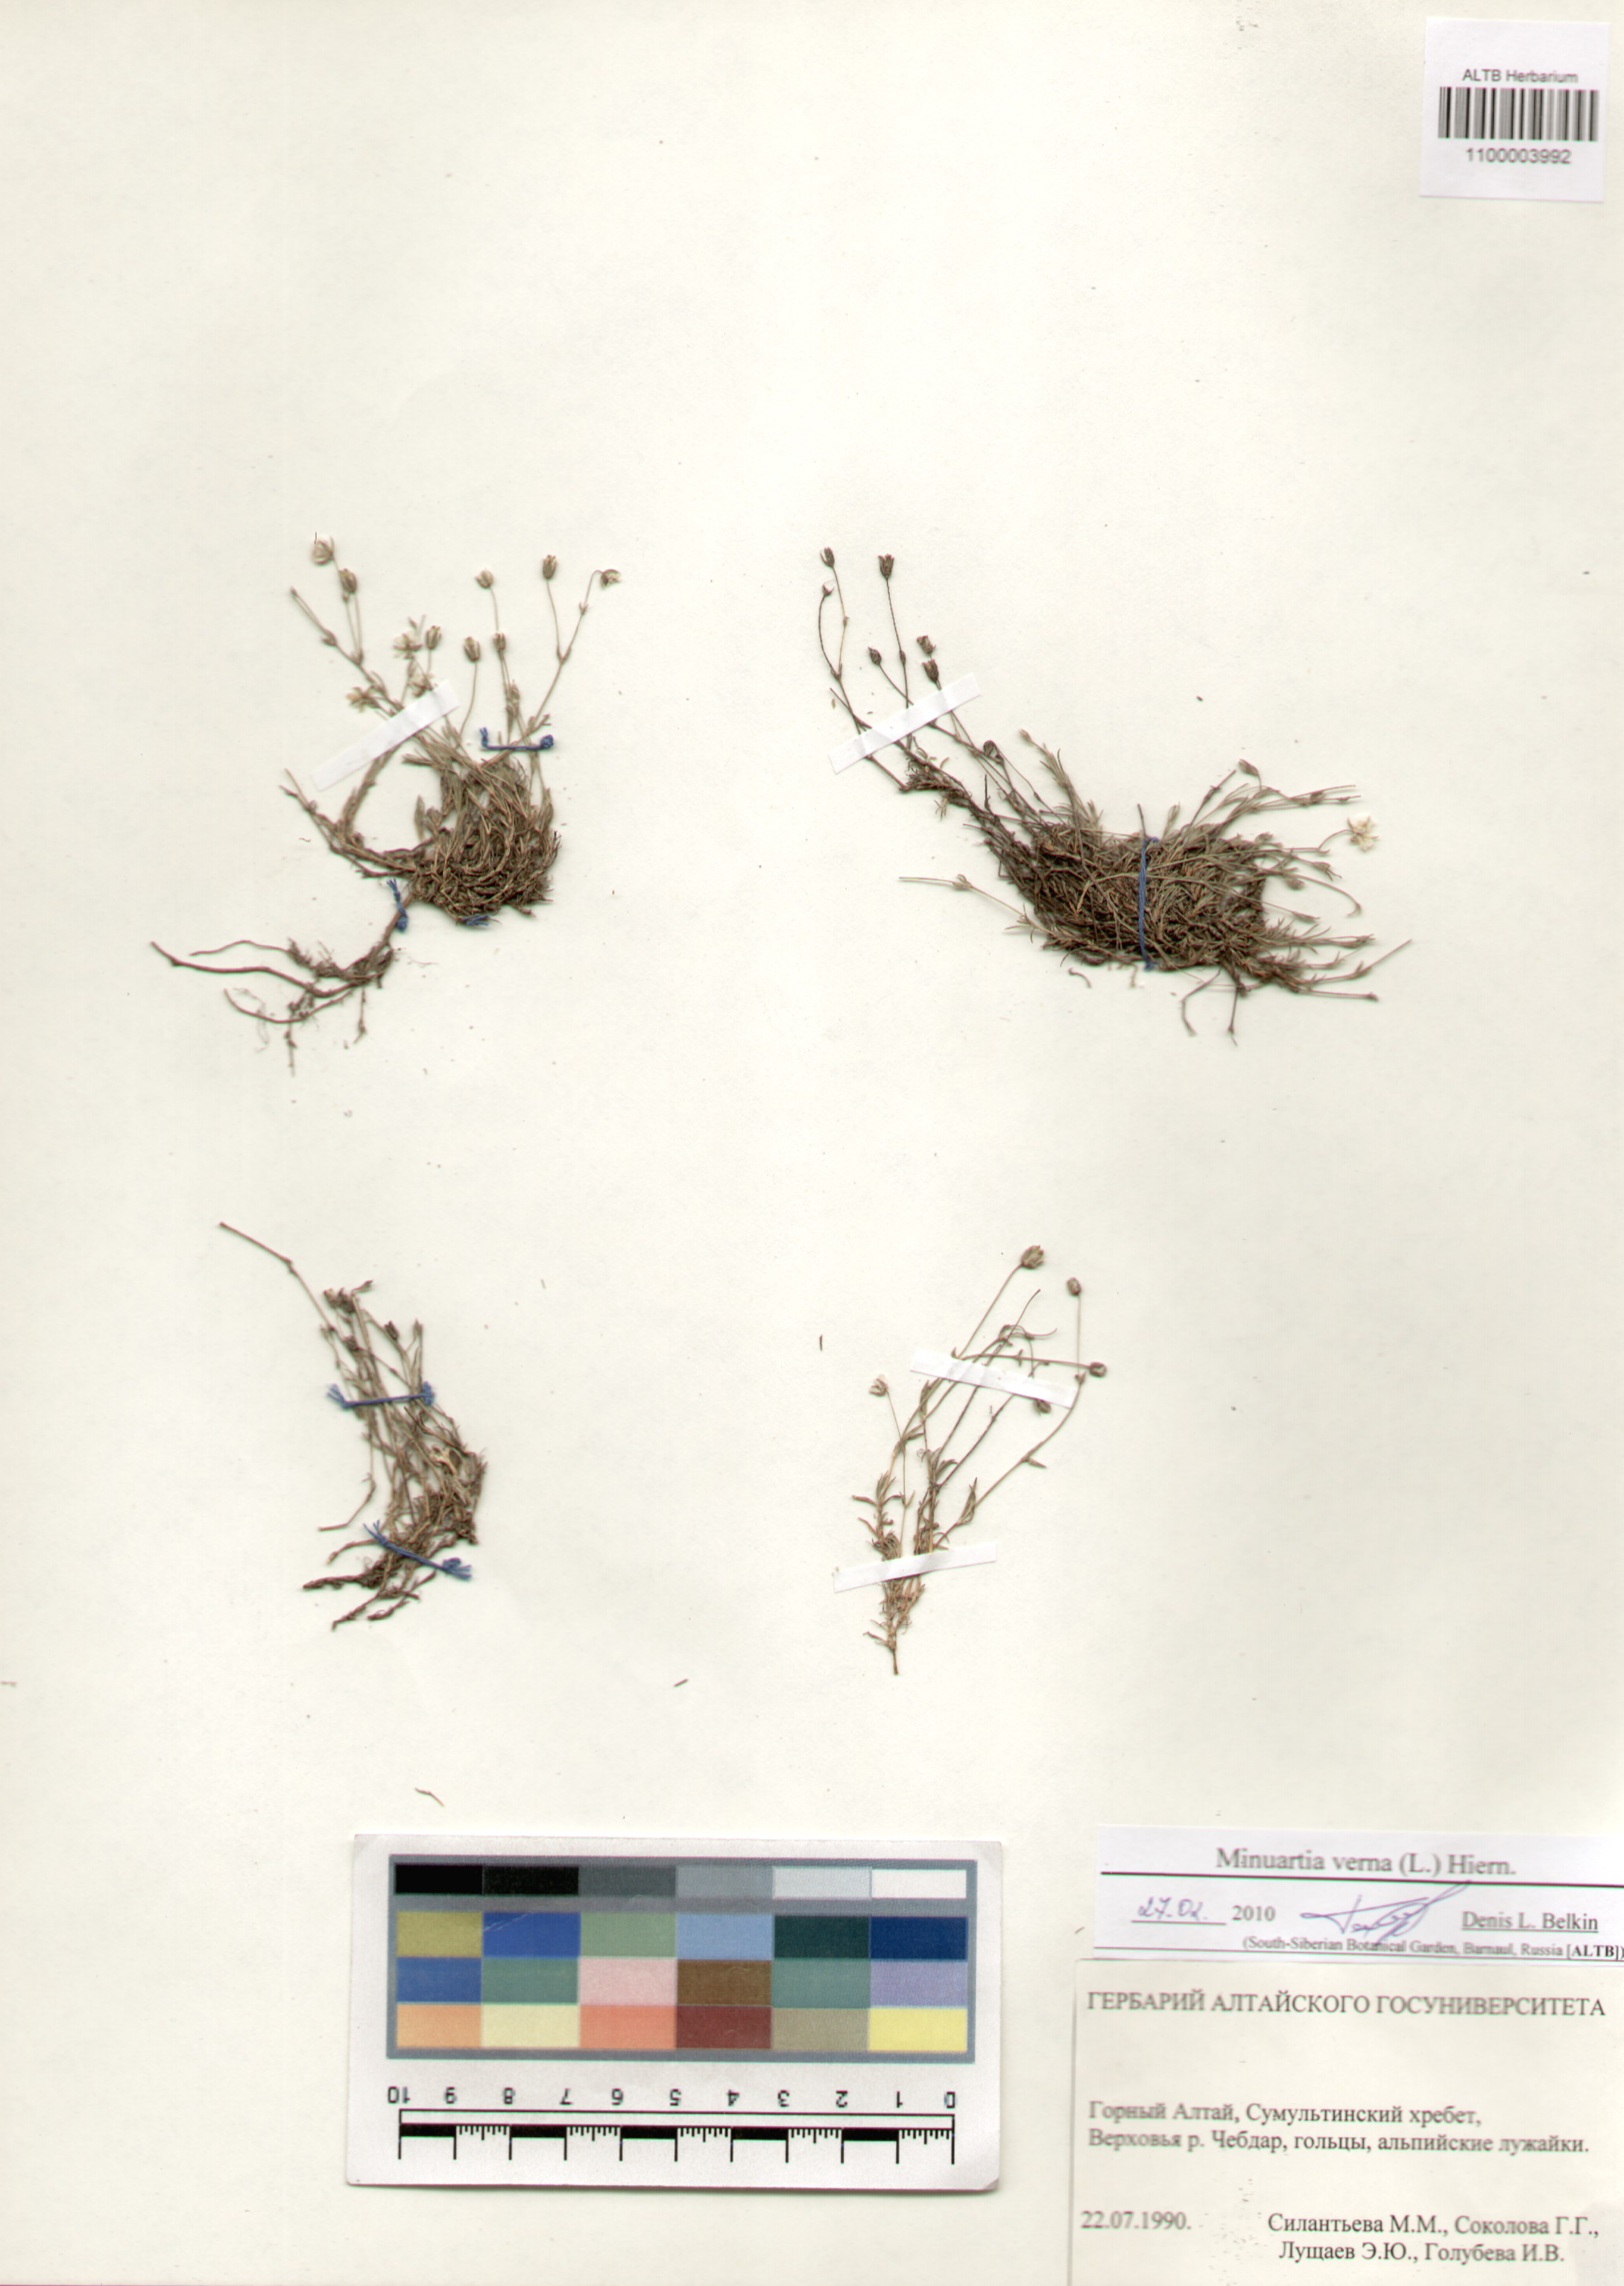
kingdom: Plantae
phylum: Tracheophyta
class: Magnoliopsida
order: Caryophyllales
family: Caryophyllaceae
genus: Sabulina
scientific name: Sabulina verna
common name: Spring sandwort
